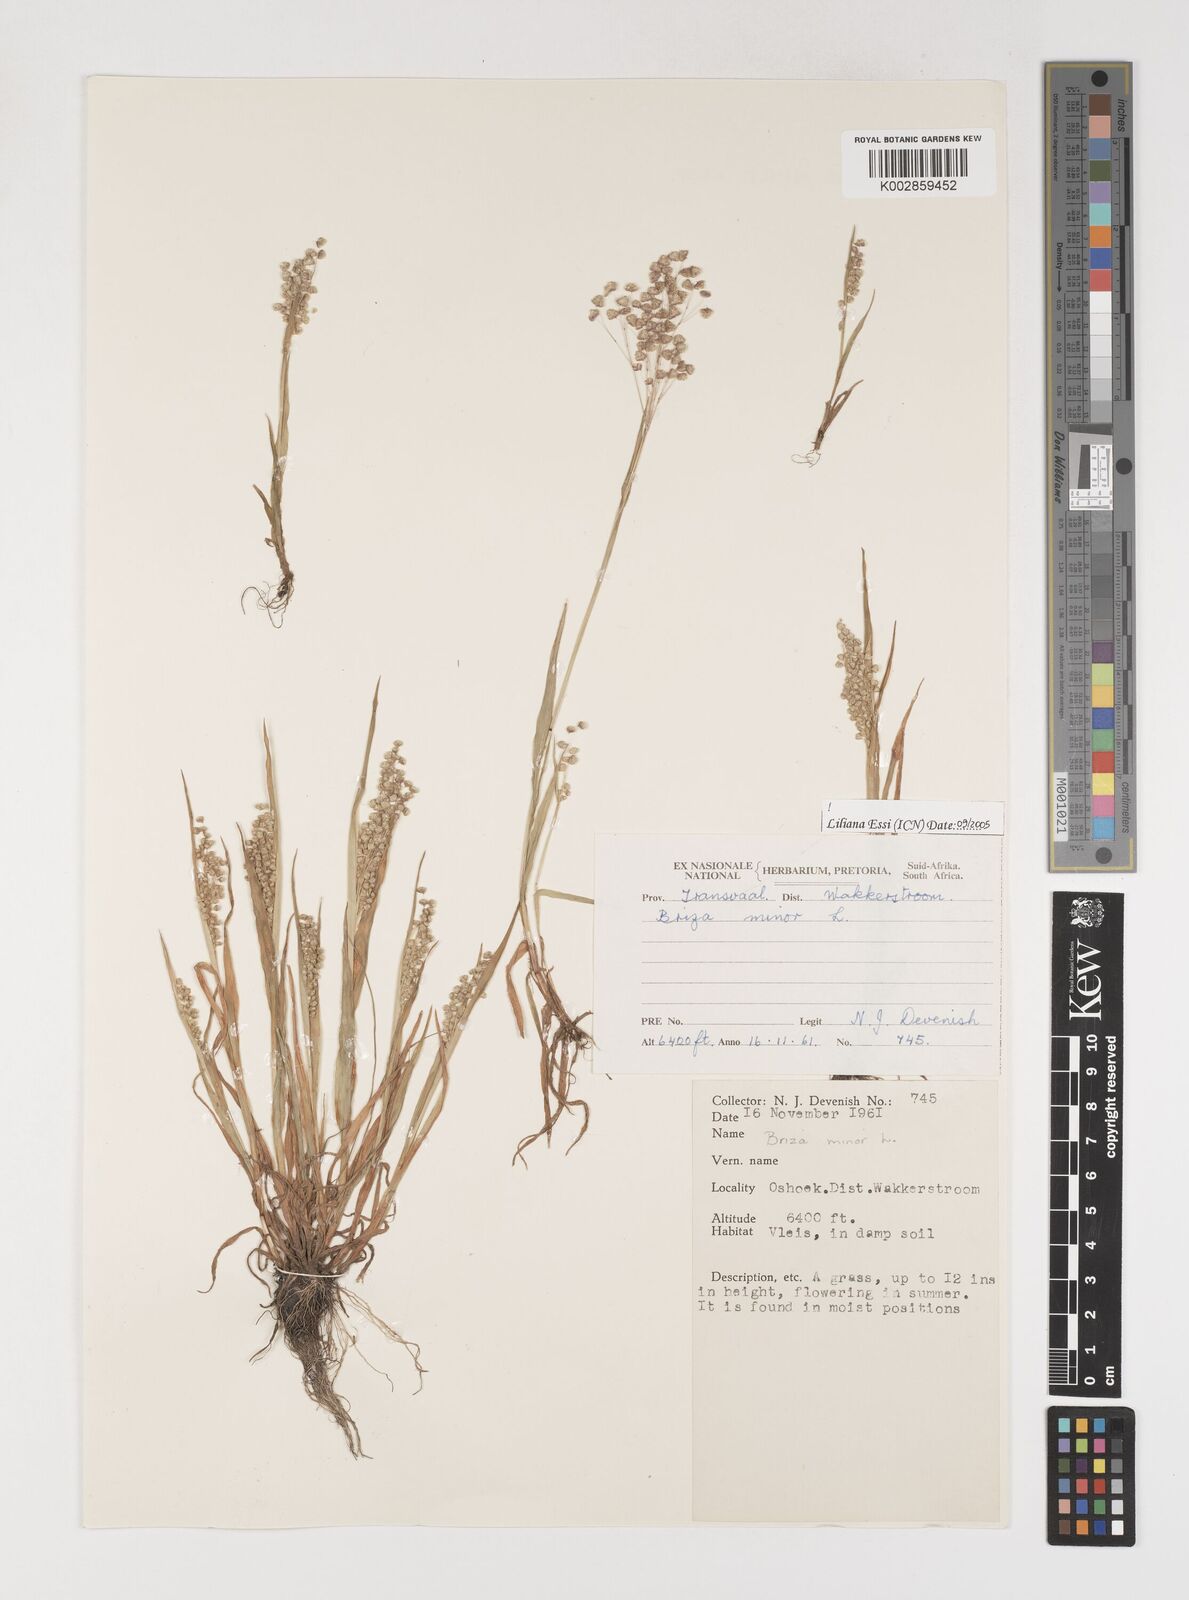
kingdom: Plantae
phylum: Tracheophyta
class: Liliopsida
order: Poales
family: Poaceae
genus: Briza
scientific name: Briza minor
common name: Lesser quaking-grass
